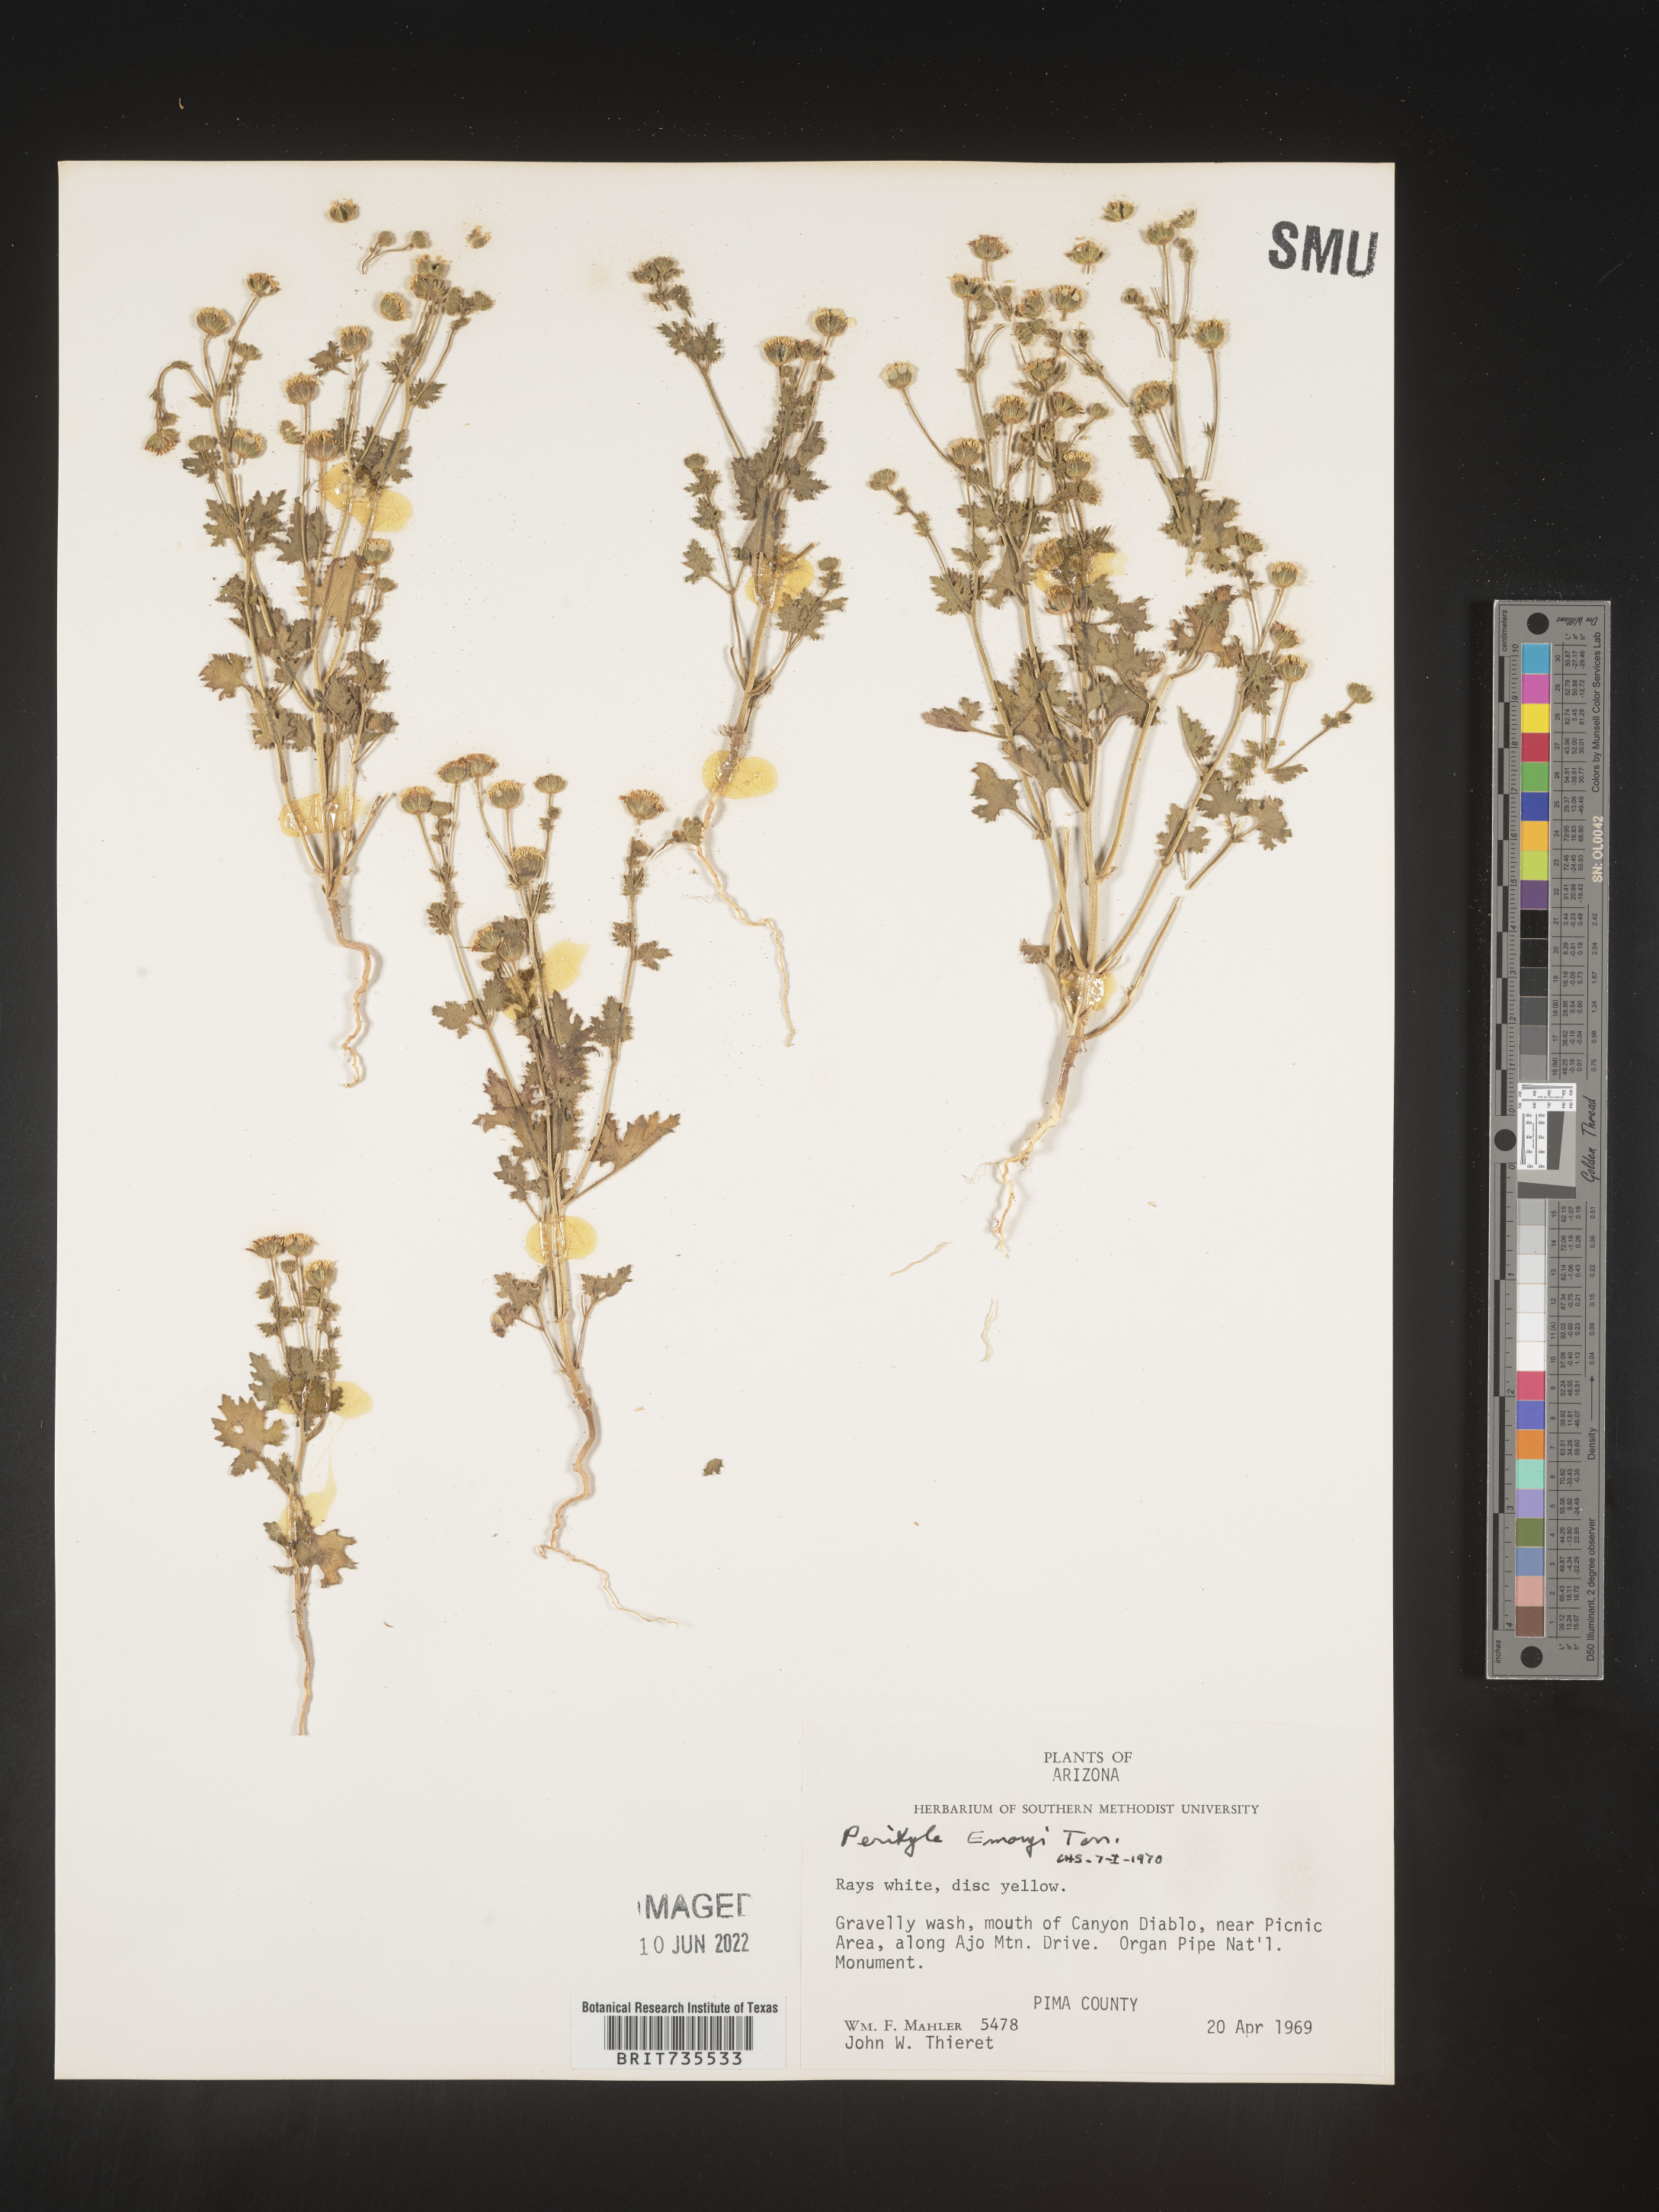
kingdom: Plantae
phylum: Tracheophyta
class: Magnoliopsida
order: Asterales
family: Asteraceae
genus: Perityle
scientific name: Perityle
